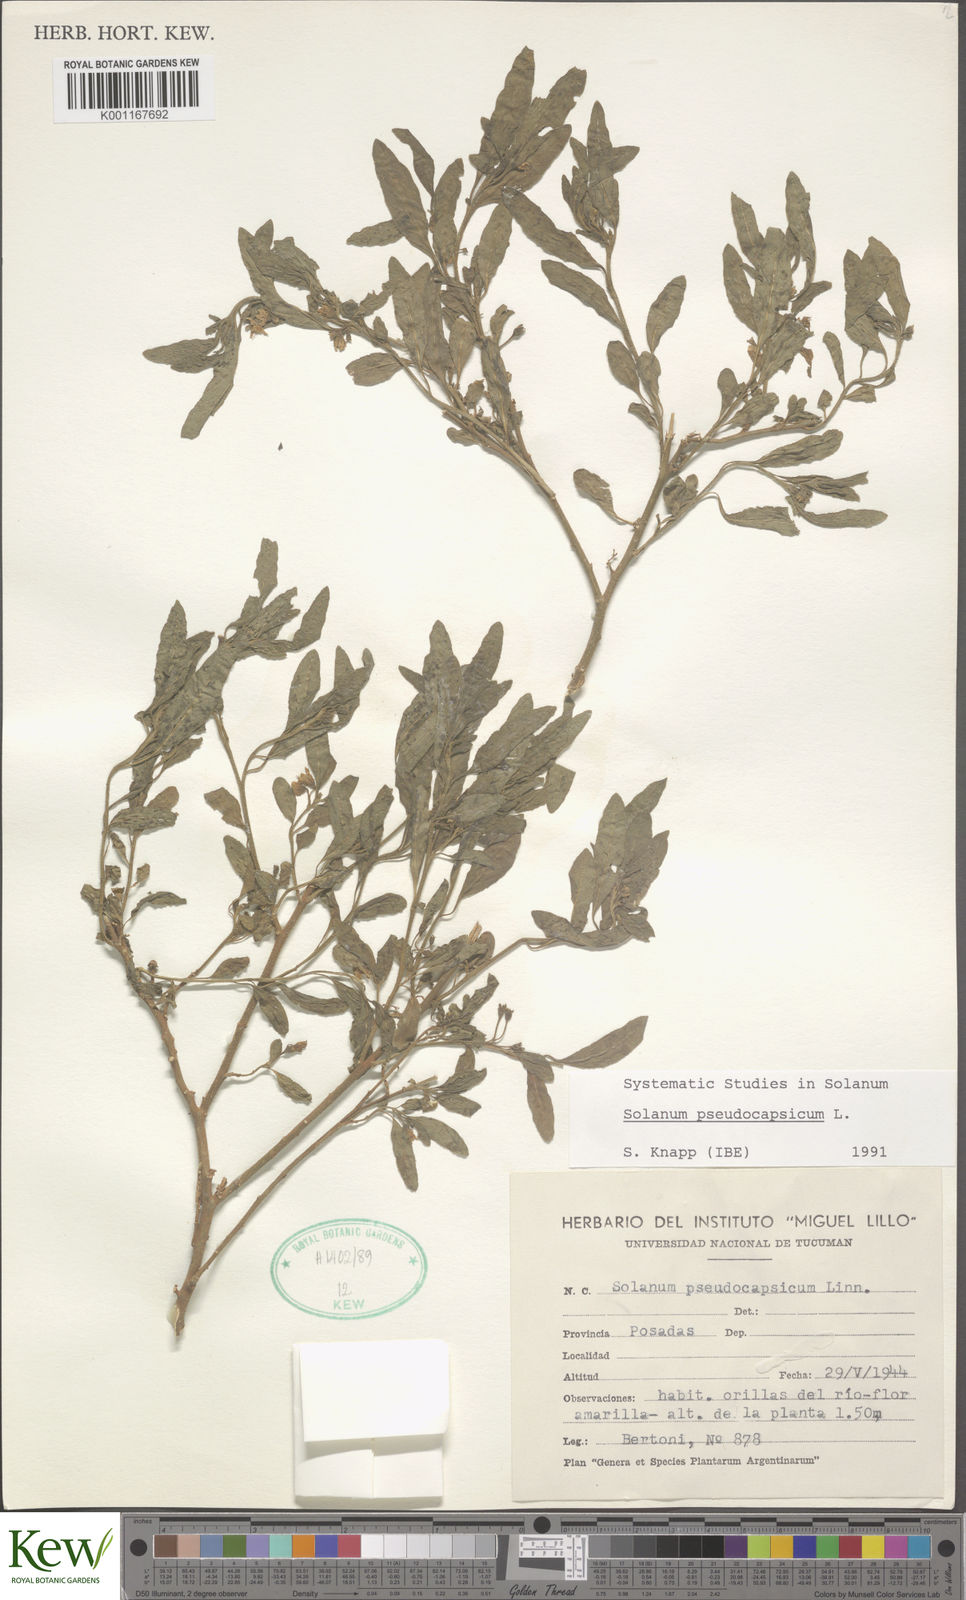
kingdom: Plantae
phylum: Tracheophyta
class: Magnoliopsida
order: Solanales
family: Solanaceae
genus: Solanum
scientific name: Solanum pseudocapsicum
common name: Jerusalem cherry
